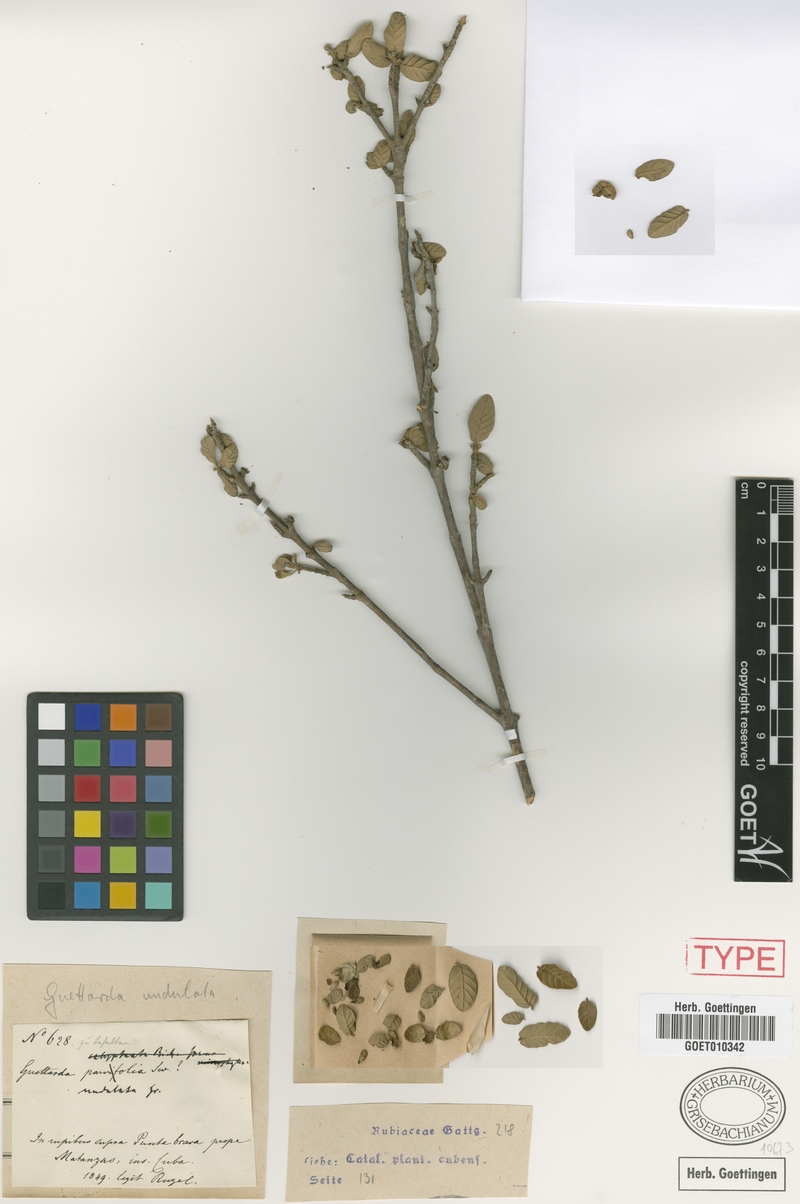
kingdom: Plantae
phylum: Tracheophyta
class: Magnoliopsida
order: Gentianales
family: Rubiaceae
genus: Guettarda
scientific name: Guettarda undulata
